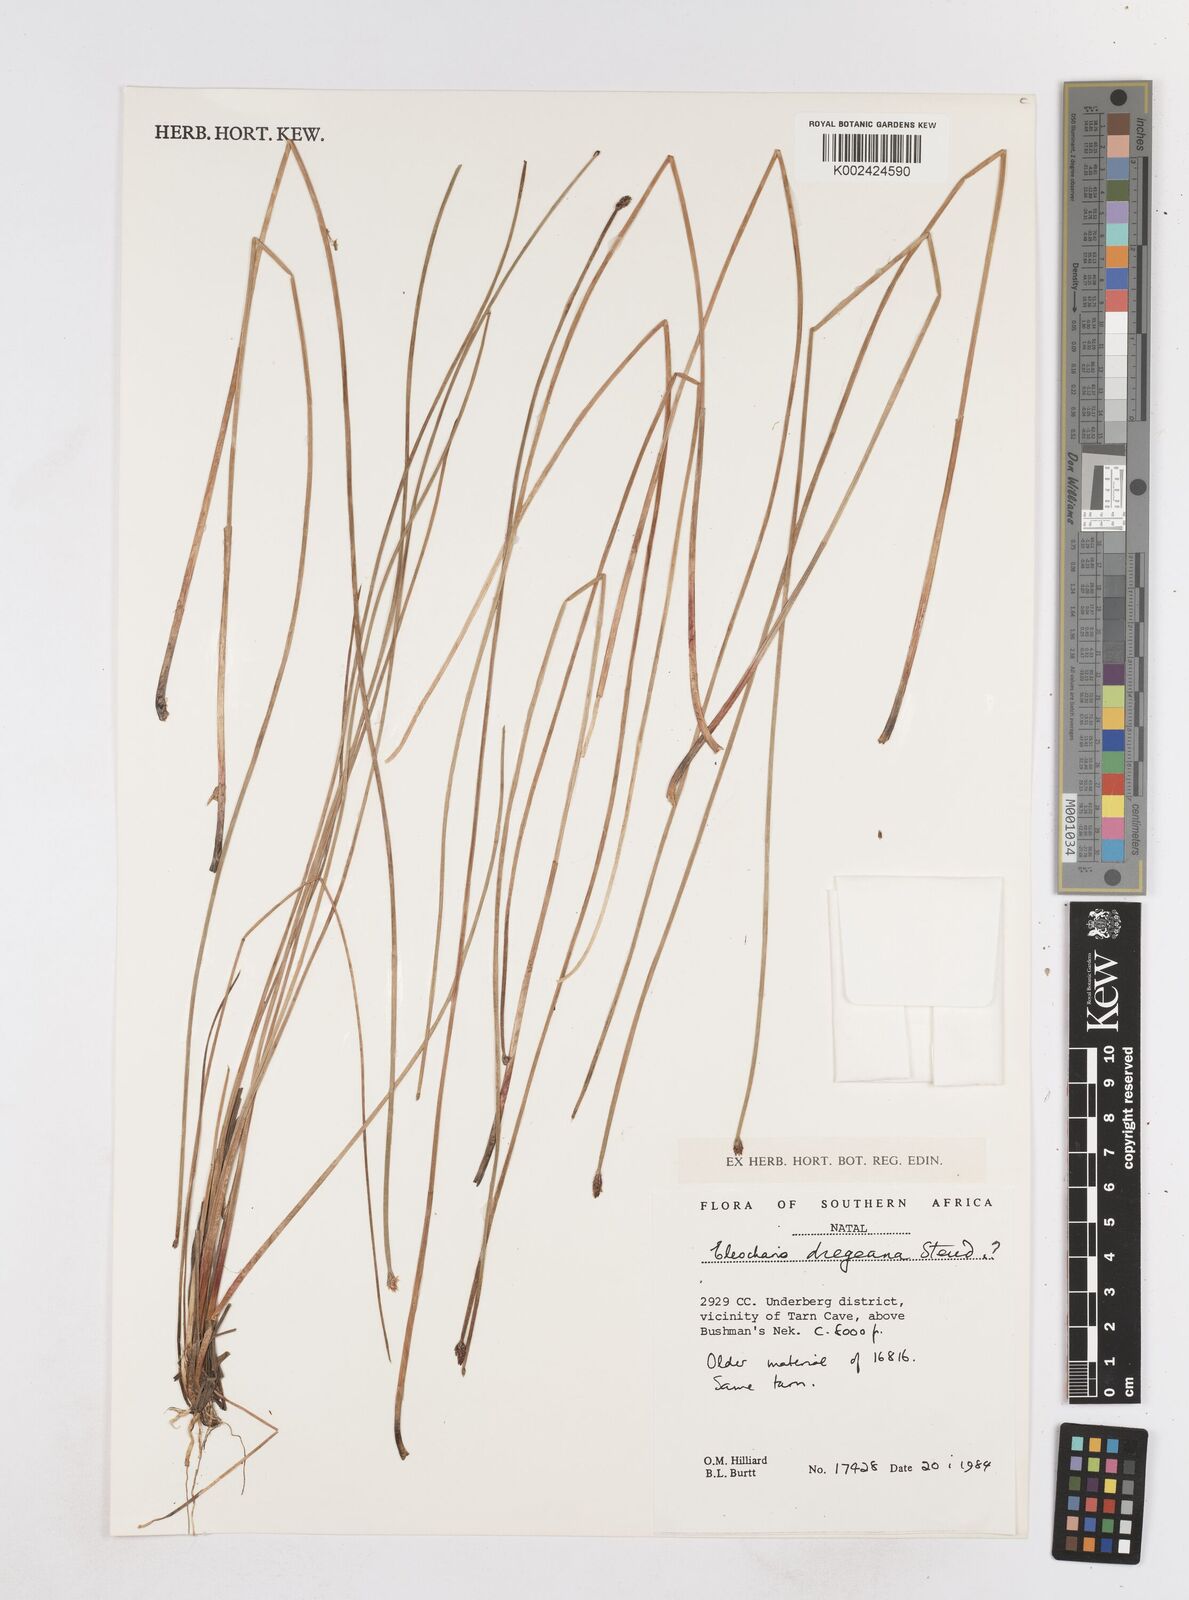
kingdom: Plantae
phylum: Tracheophyta
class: Liliopsida
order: Poales
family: Cyperaceae
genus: Eleocharis
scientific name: Eleocharis dregeana
